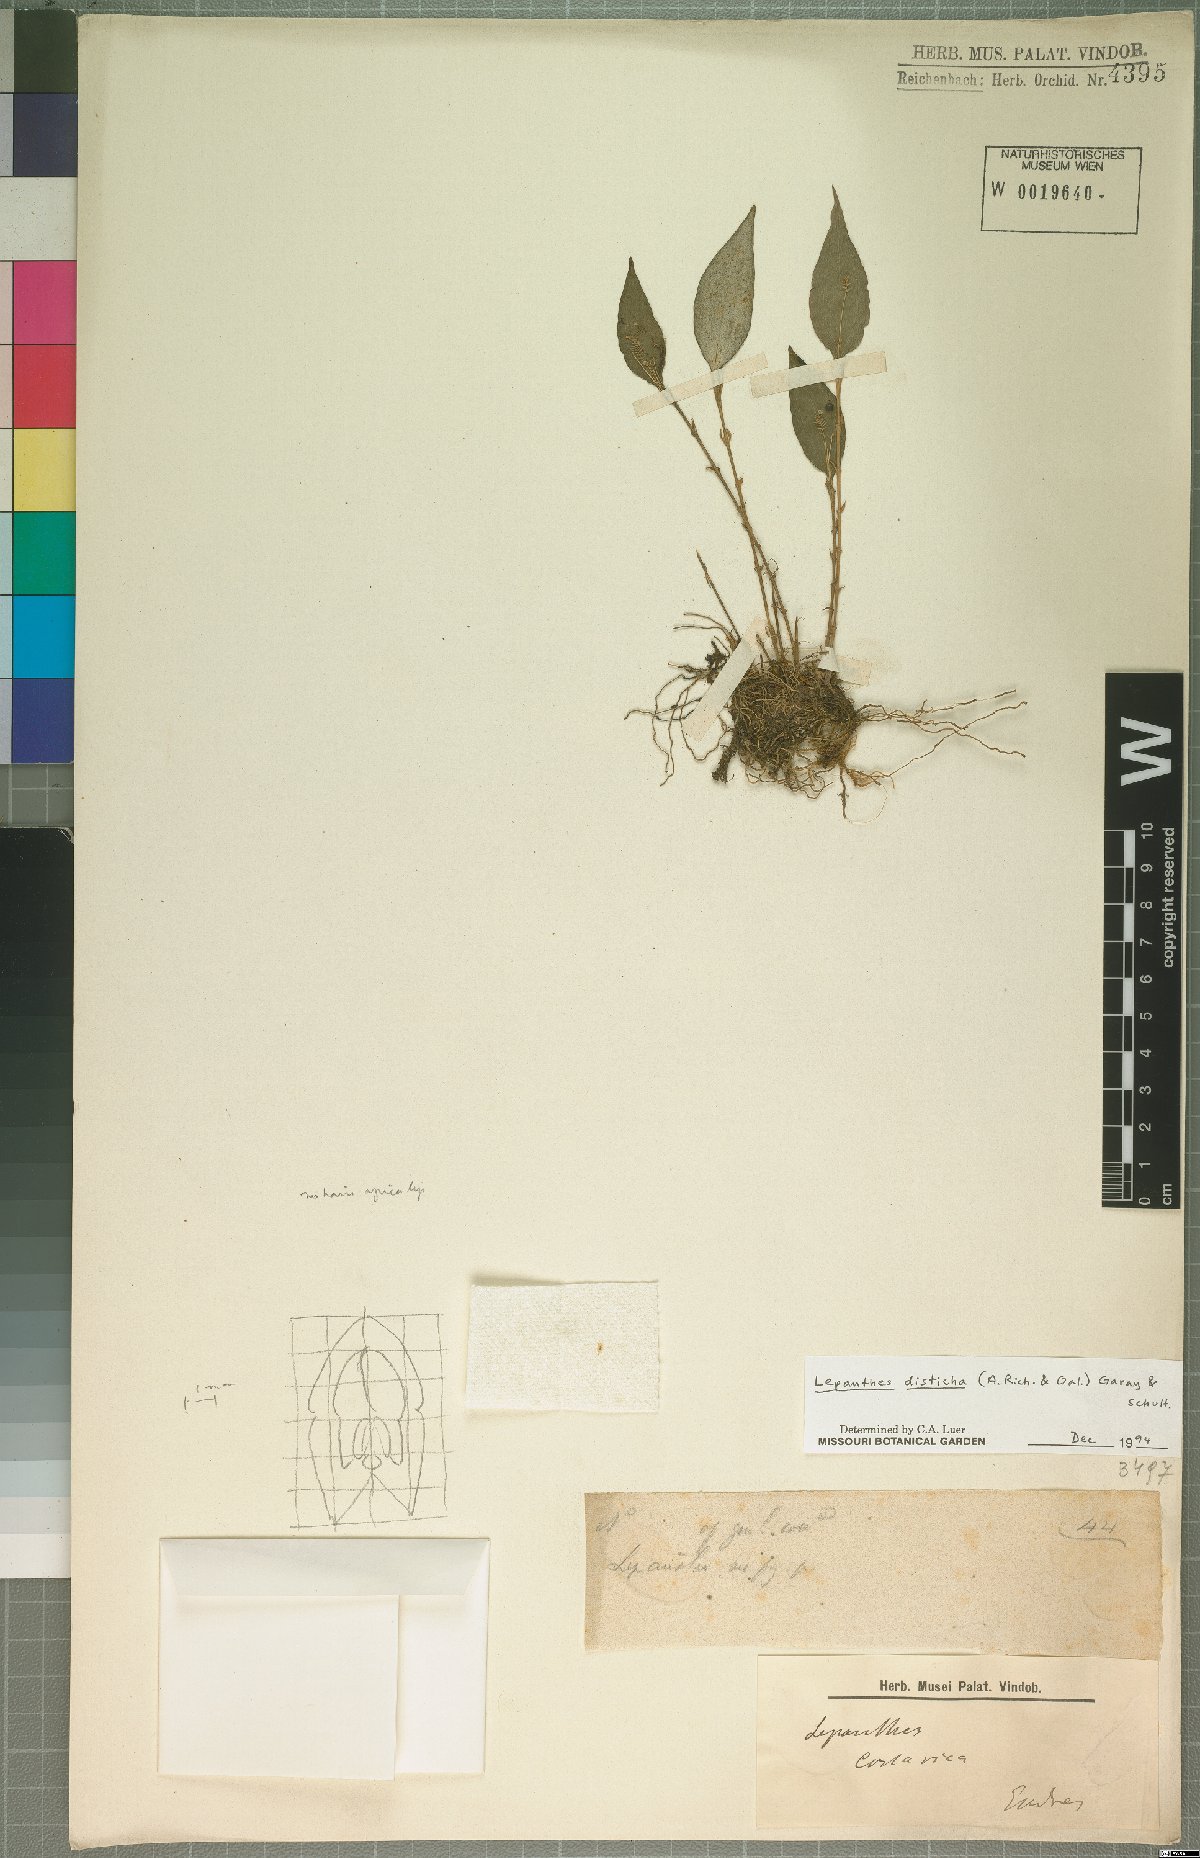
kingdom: Plantae
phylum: Tracheophyta
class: Liliopsida
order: Asparagales
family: Orchidaceae
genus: Lepanthes
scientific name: Lepanthes disticha
